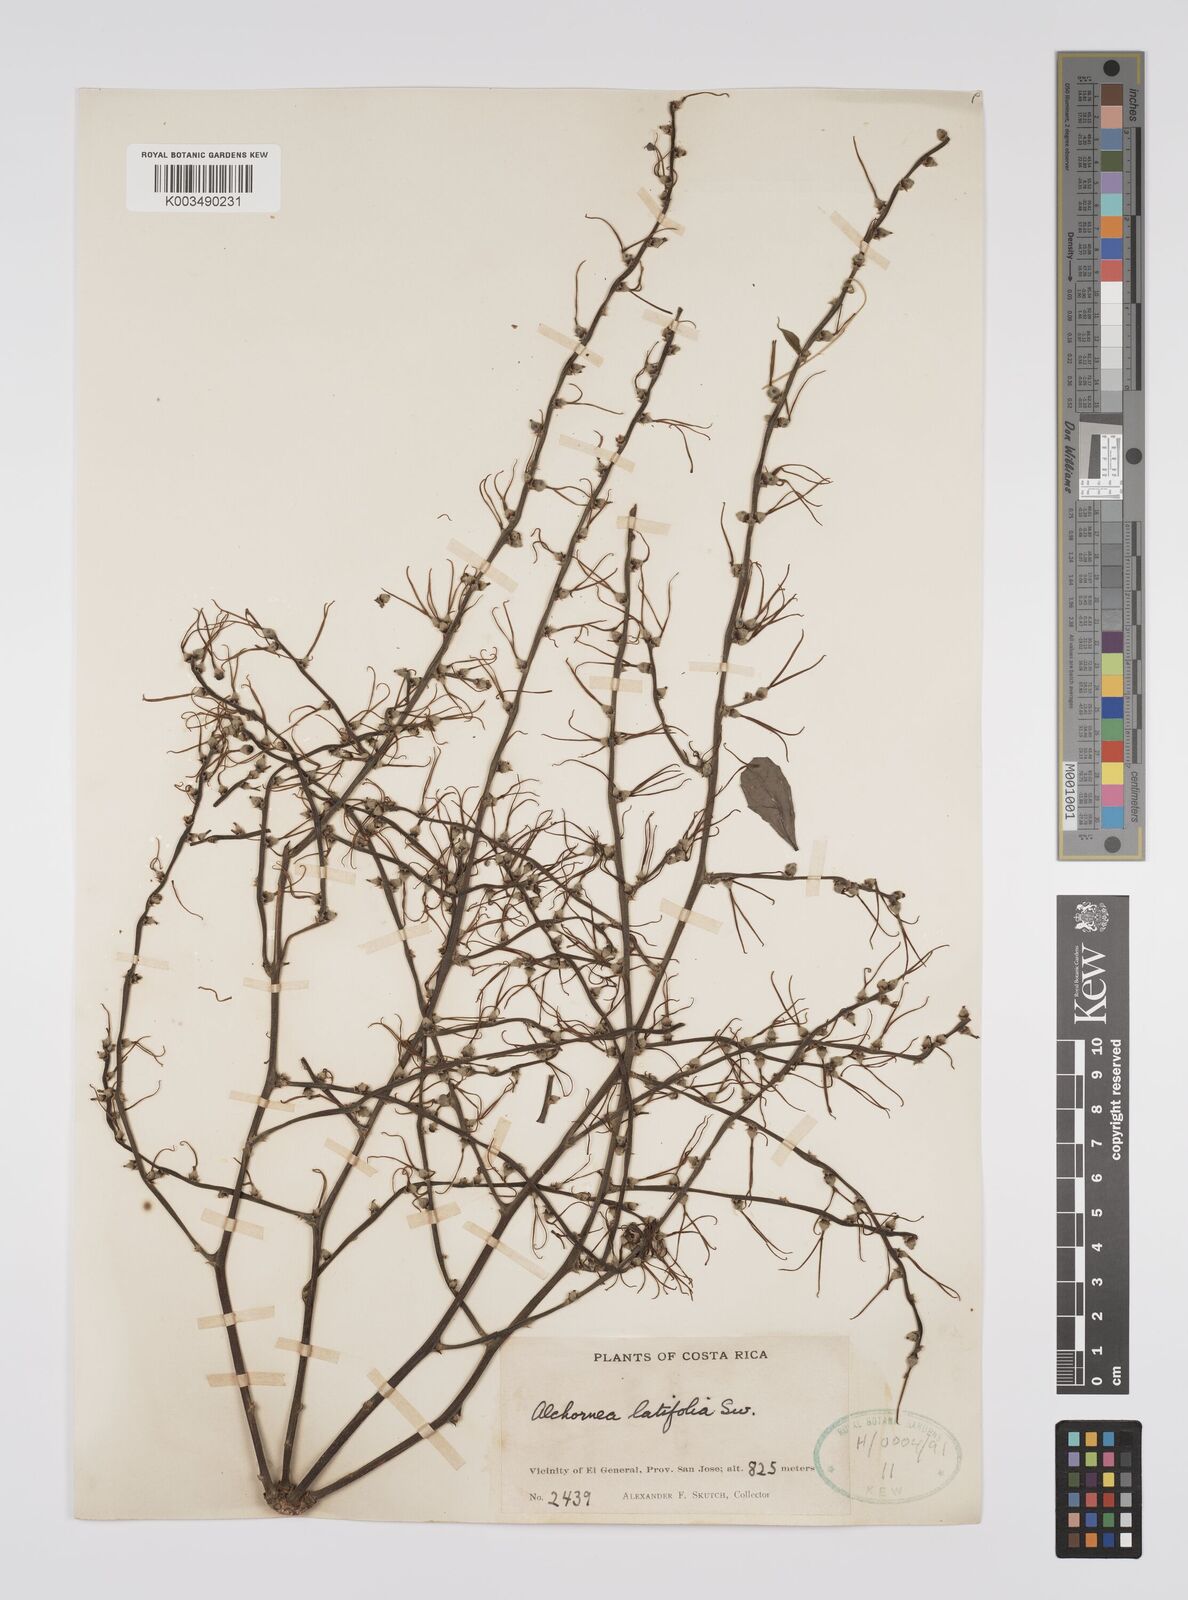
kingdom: Plantae
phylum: Tracheophyta
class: Magnoliopsida
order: Malpighiales
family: Euphorbiaceae
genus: Alchornea
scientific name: Alchornea latifolia
